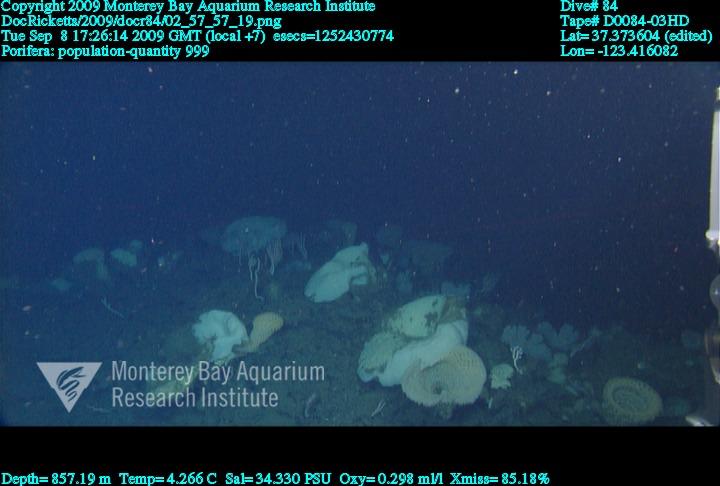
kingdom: Animalia
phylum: Porifera
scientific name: Porifera
